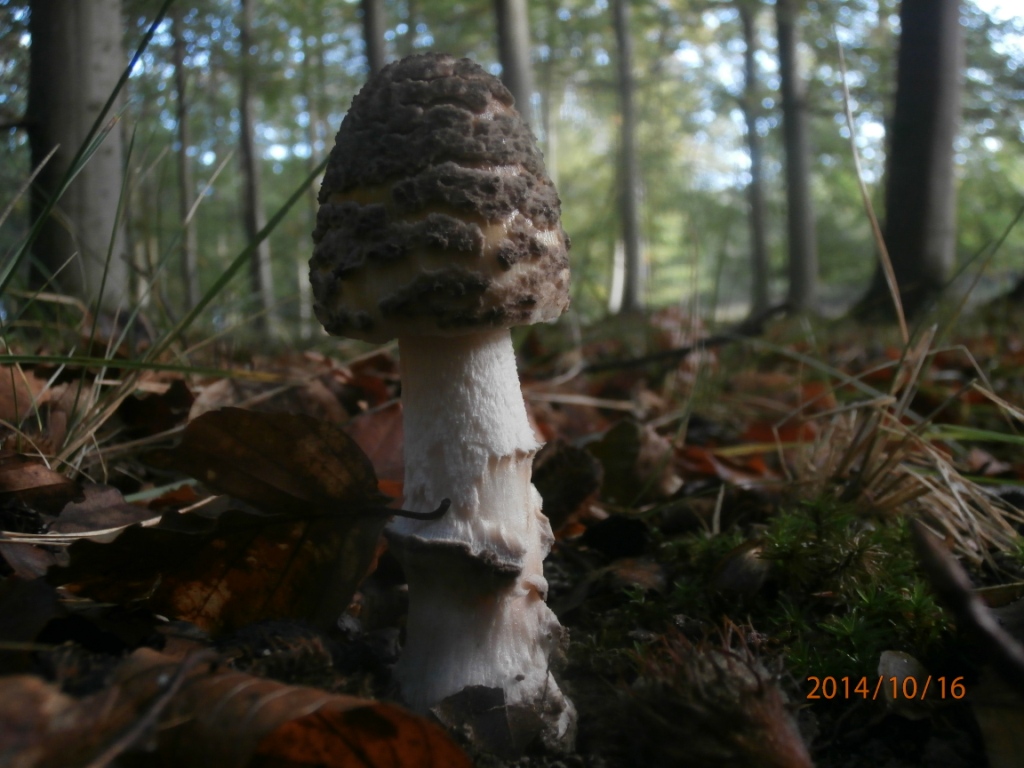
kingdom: Fungi
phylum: Basidiomycota
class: Agaricomycetes
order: Agaricales
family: Amanitaceae
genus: Amanita
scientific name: Amanita ceciliae
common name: stor kam-fluesvamp
